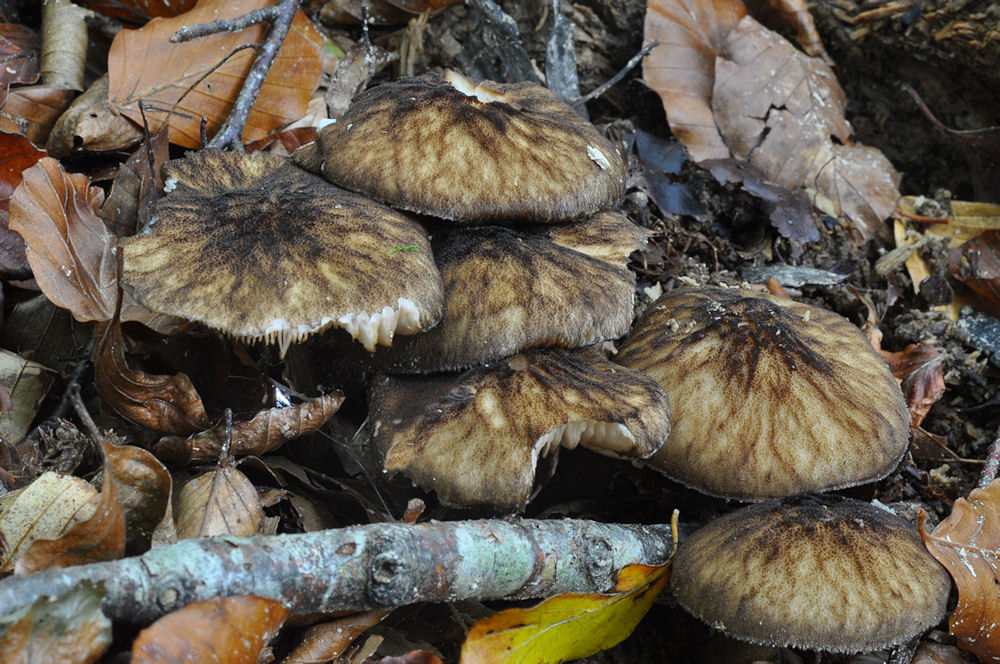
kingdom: Fungi
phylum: Basidiomycota
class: Agaricomycetes
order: Agaricales
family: Pluteaceae
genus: Pluteus
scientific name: Pluteus umbrosus
